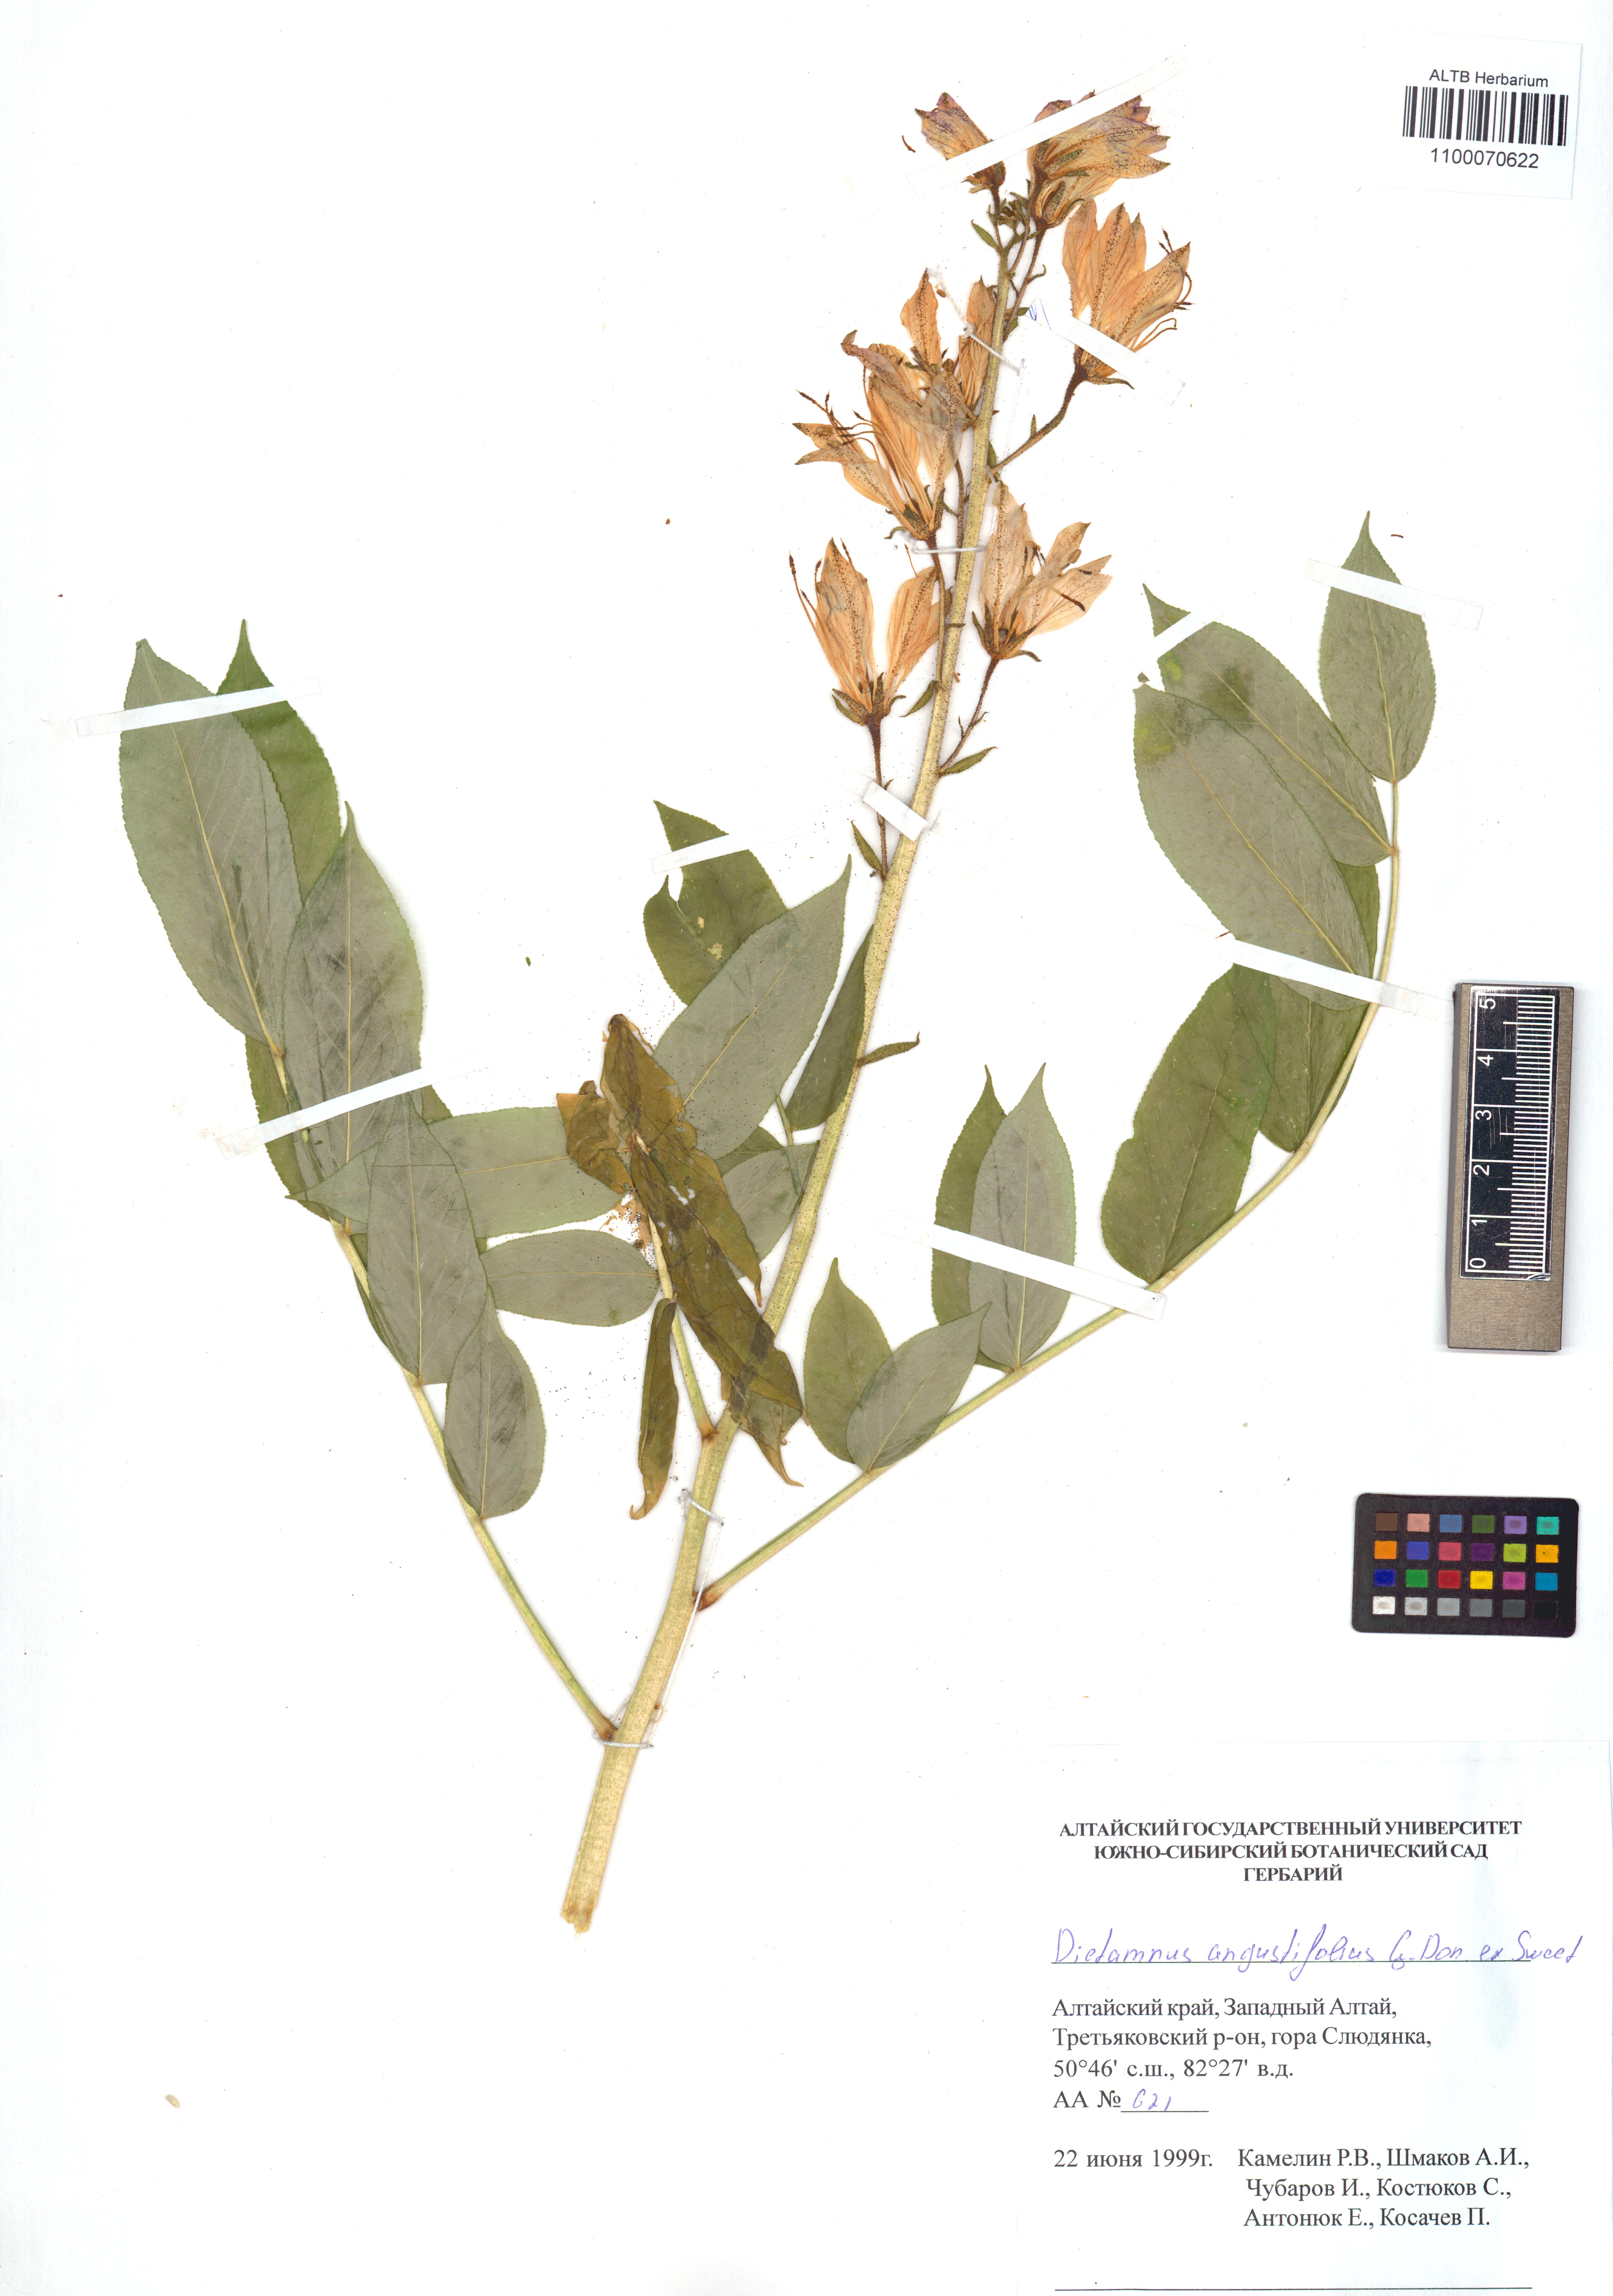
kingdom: Plantae
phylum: Tracheophyta
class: Magnoliopsida
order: Sapindales
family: Rutaceae
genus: Dictamnus
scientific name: Dictamnus albus
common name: Gasplant
